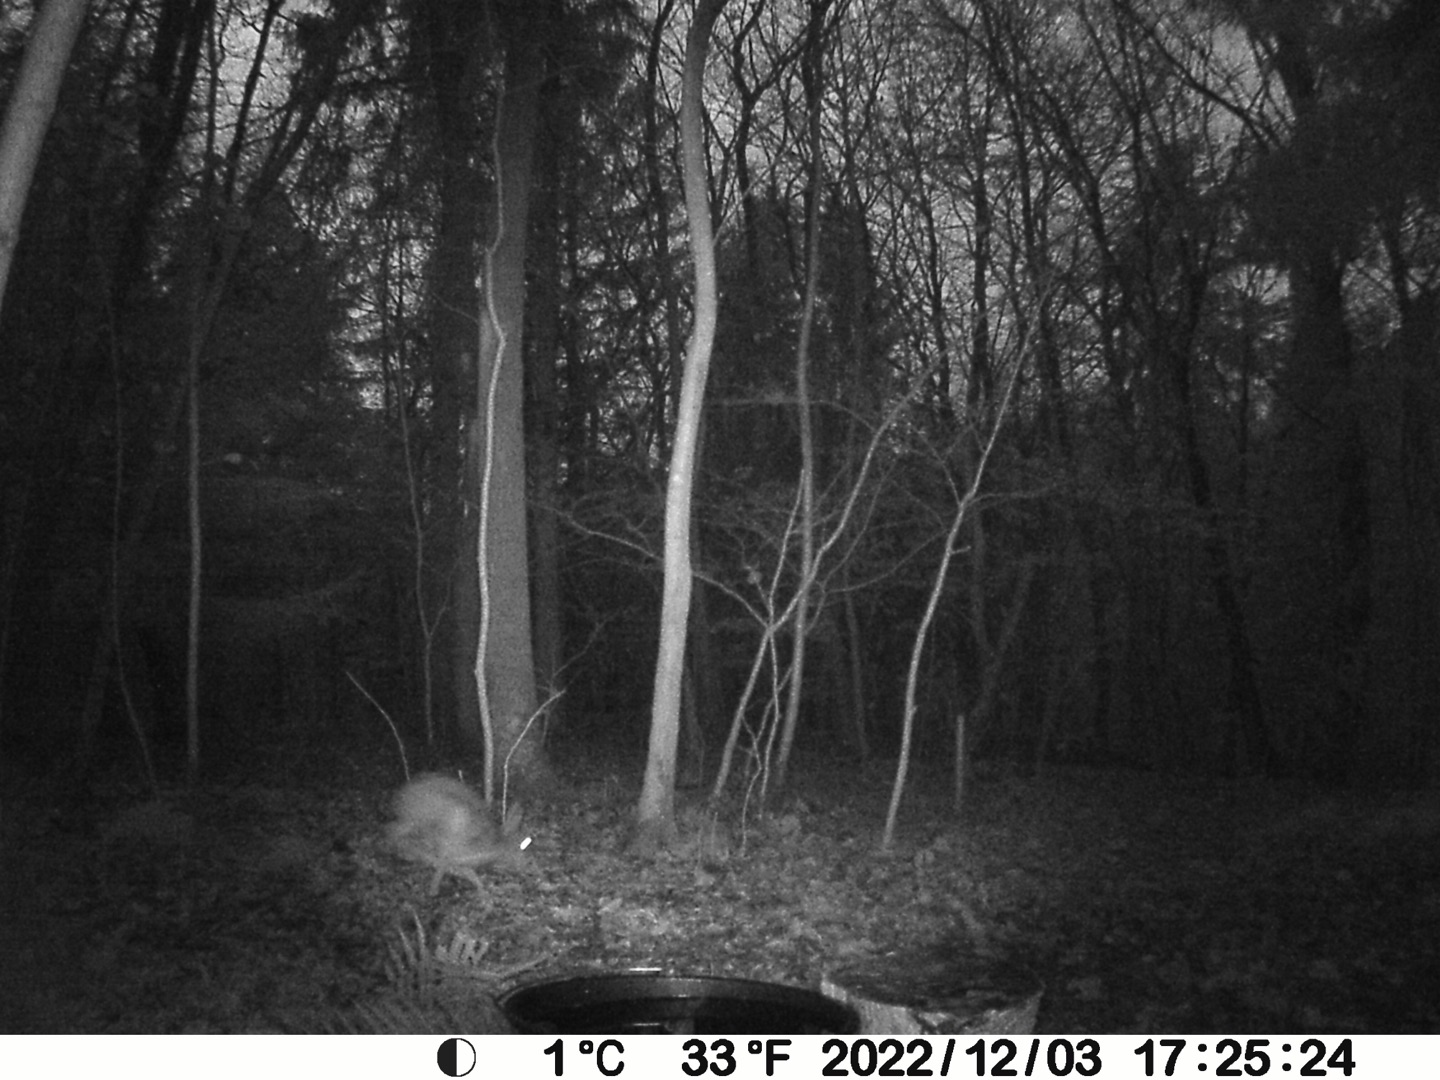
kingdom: Animalia
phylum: Chordata
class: Mammalia
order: Lagomorpha
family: Leporidae
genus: Lepus
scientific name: Lepus europaeus
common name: Hare
